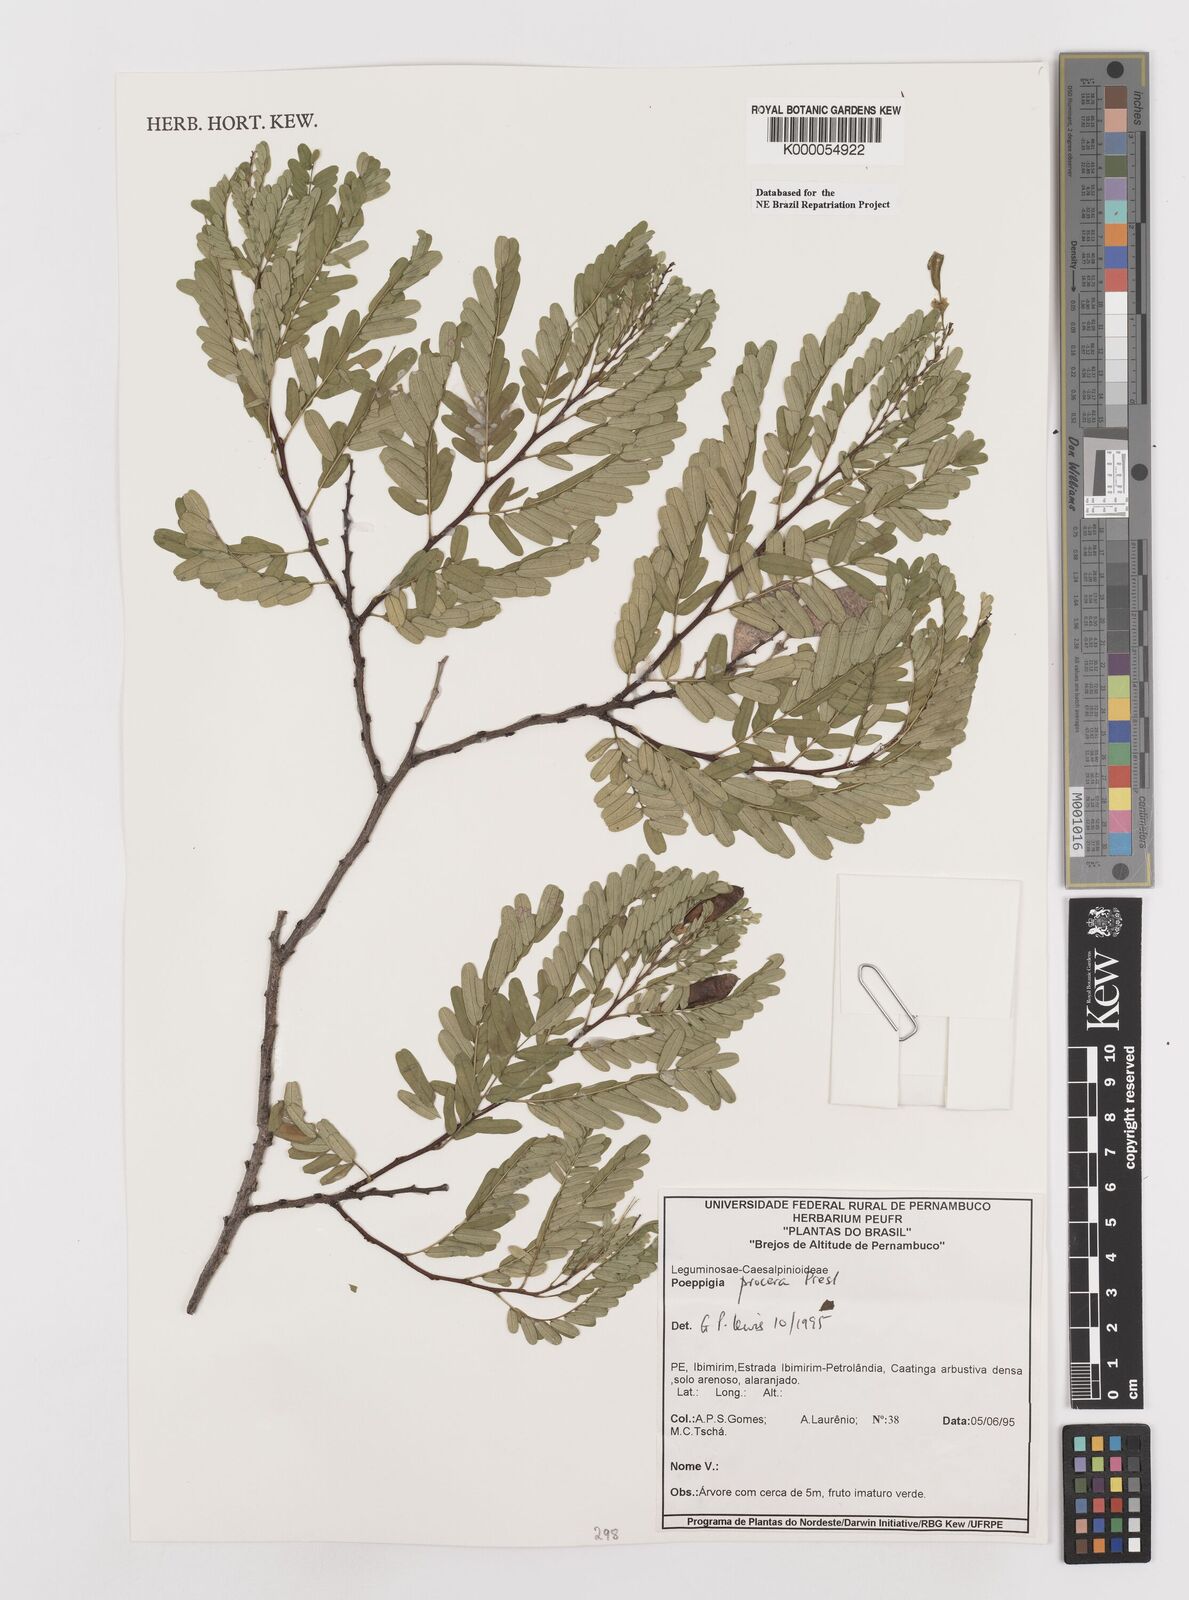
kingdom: Plantae
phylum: Tracheophyta
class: Magnoliopsida
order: Fabales
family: Fabaceae
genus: Poeppigia
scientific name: Poeppigia procera
